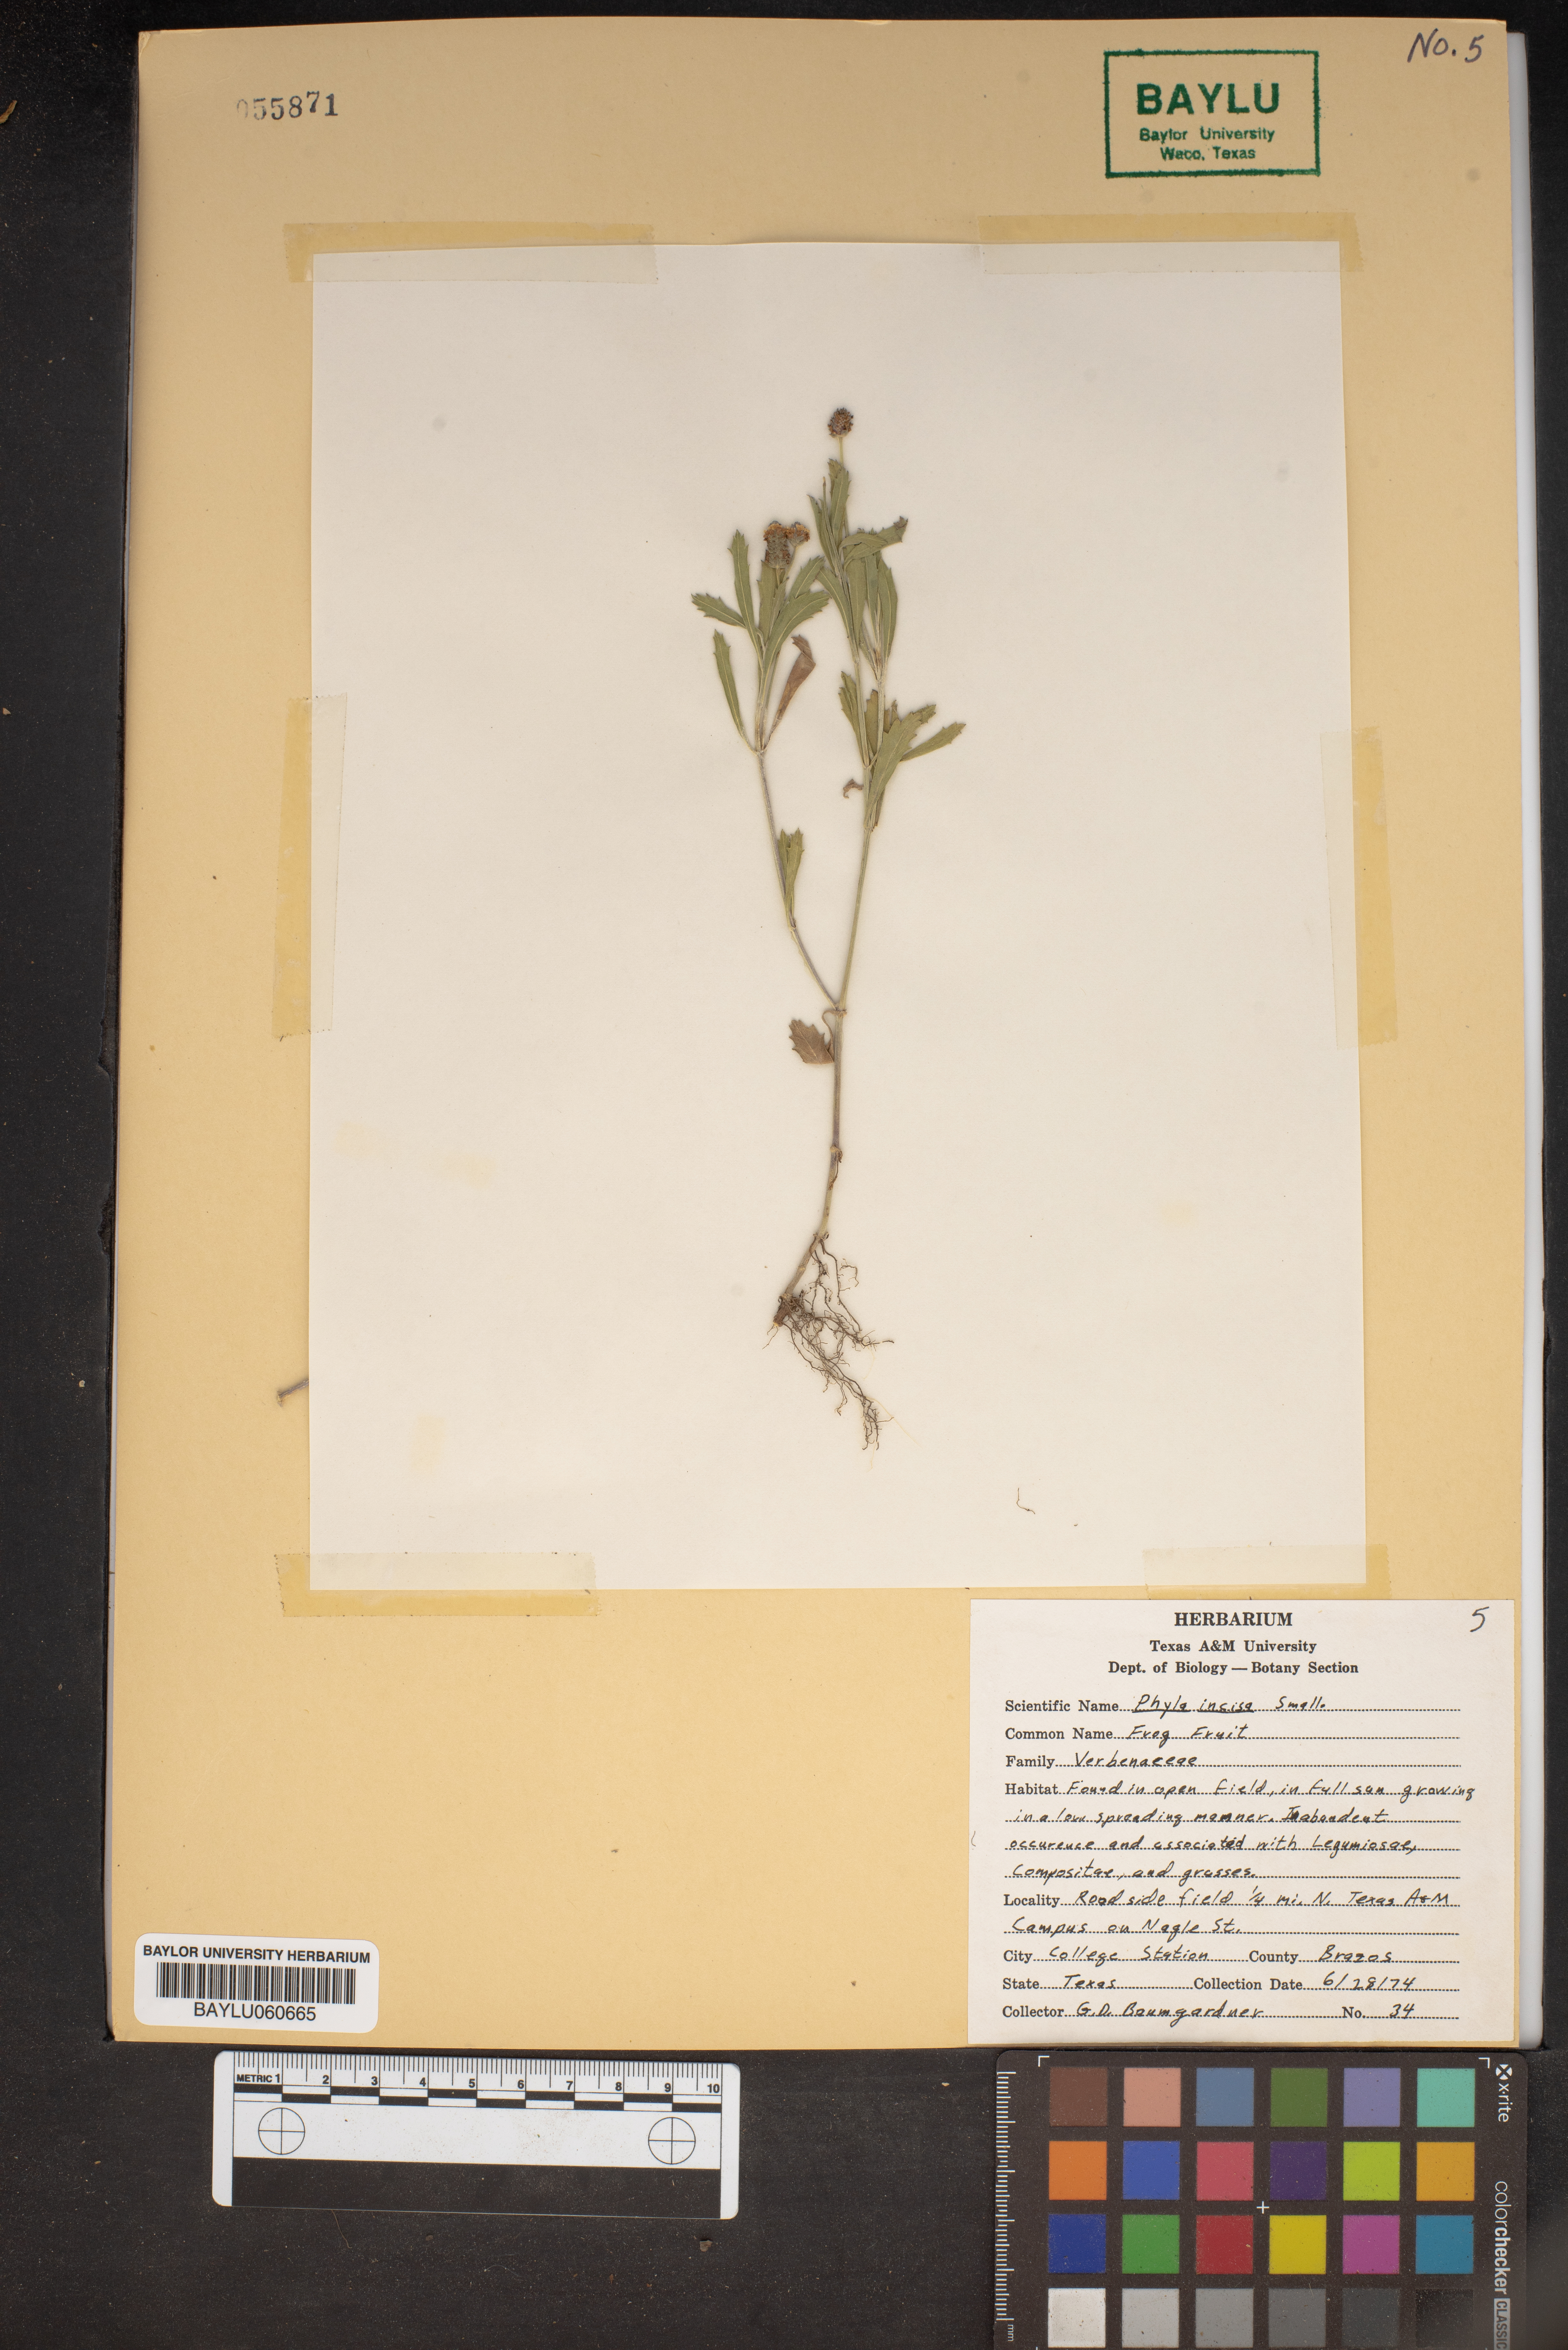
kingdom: Plantae
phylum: Tracheophyta
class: Magnoliopsida
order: Lamiales
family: Verbenaceae
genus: Phyla
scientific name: Phyla nodiflora
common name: Frogfruit
